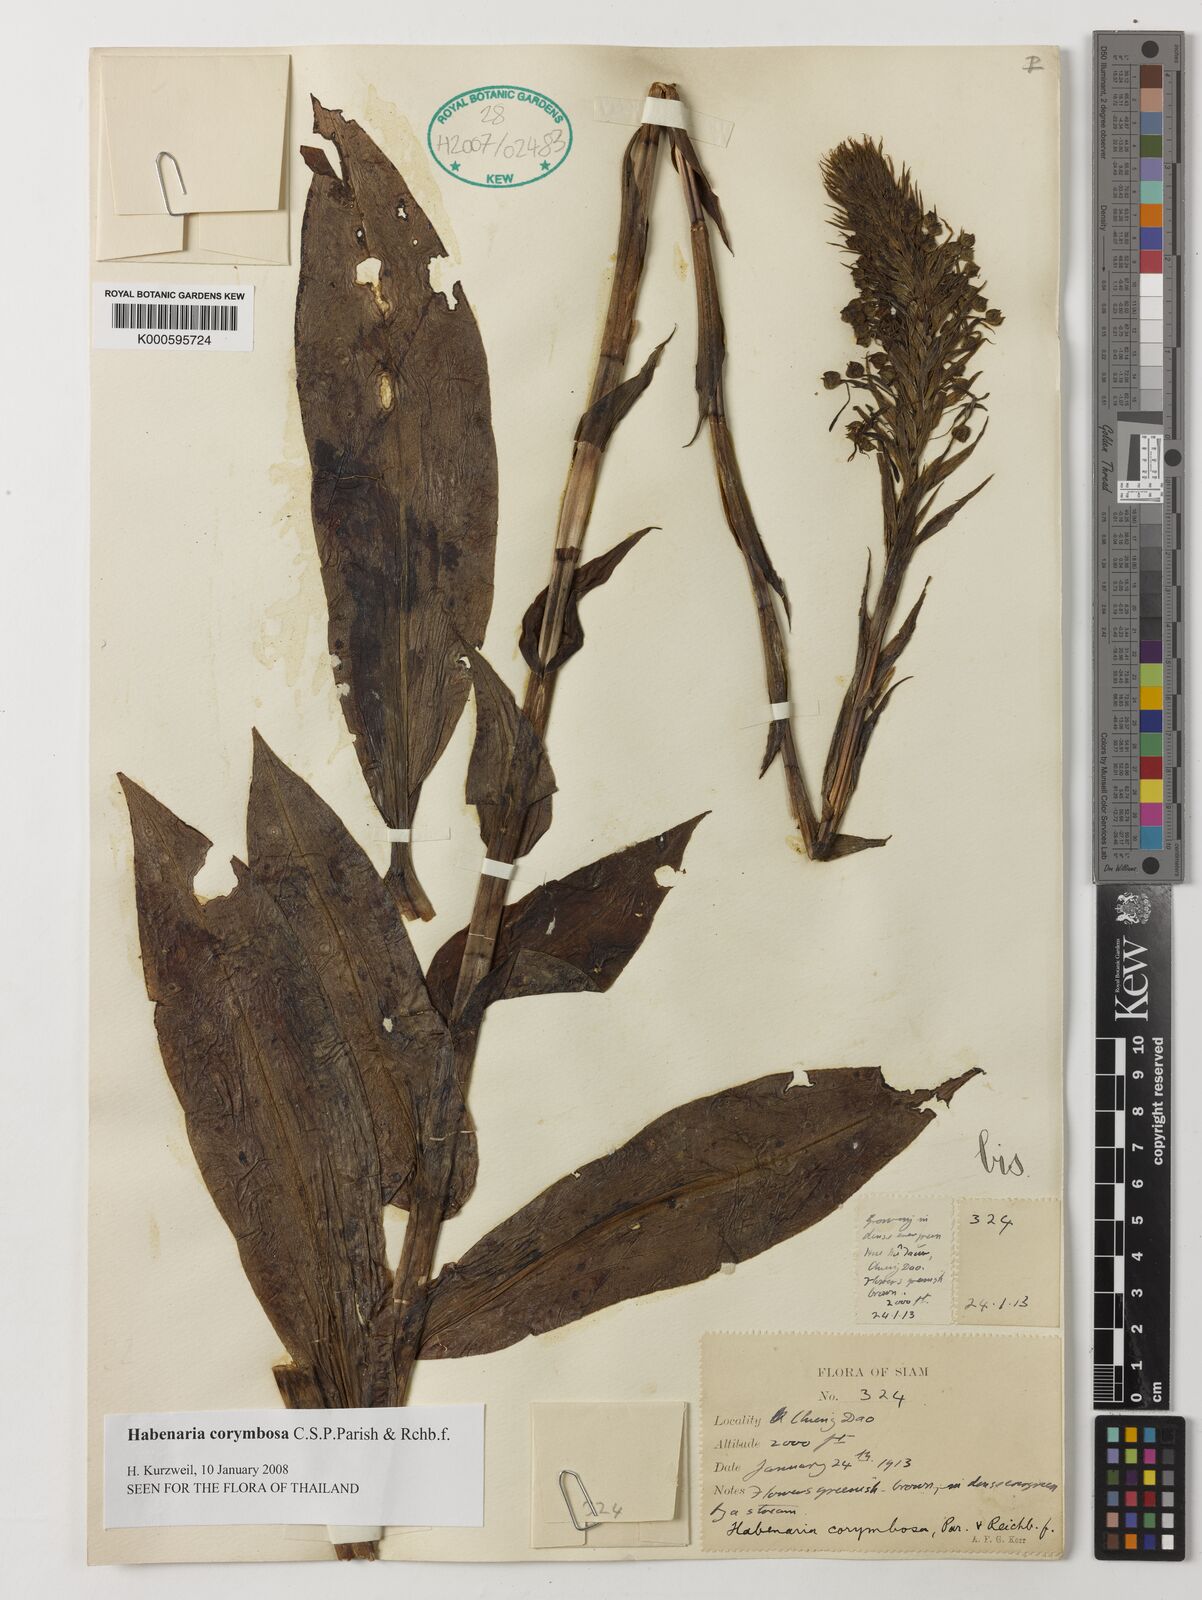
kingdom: Plantae
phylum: Tracheophyta
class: Liliopsida
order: Asparagales
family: Orchidaceae
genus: Habenaria
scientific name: Habenaria corymbosa
